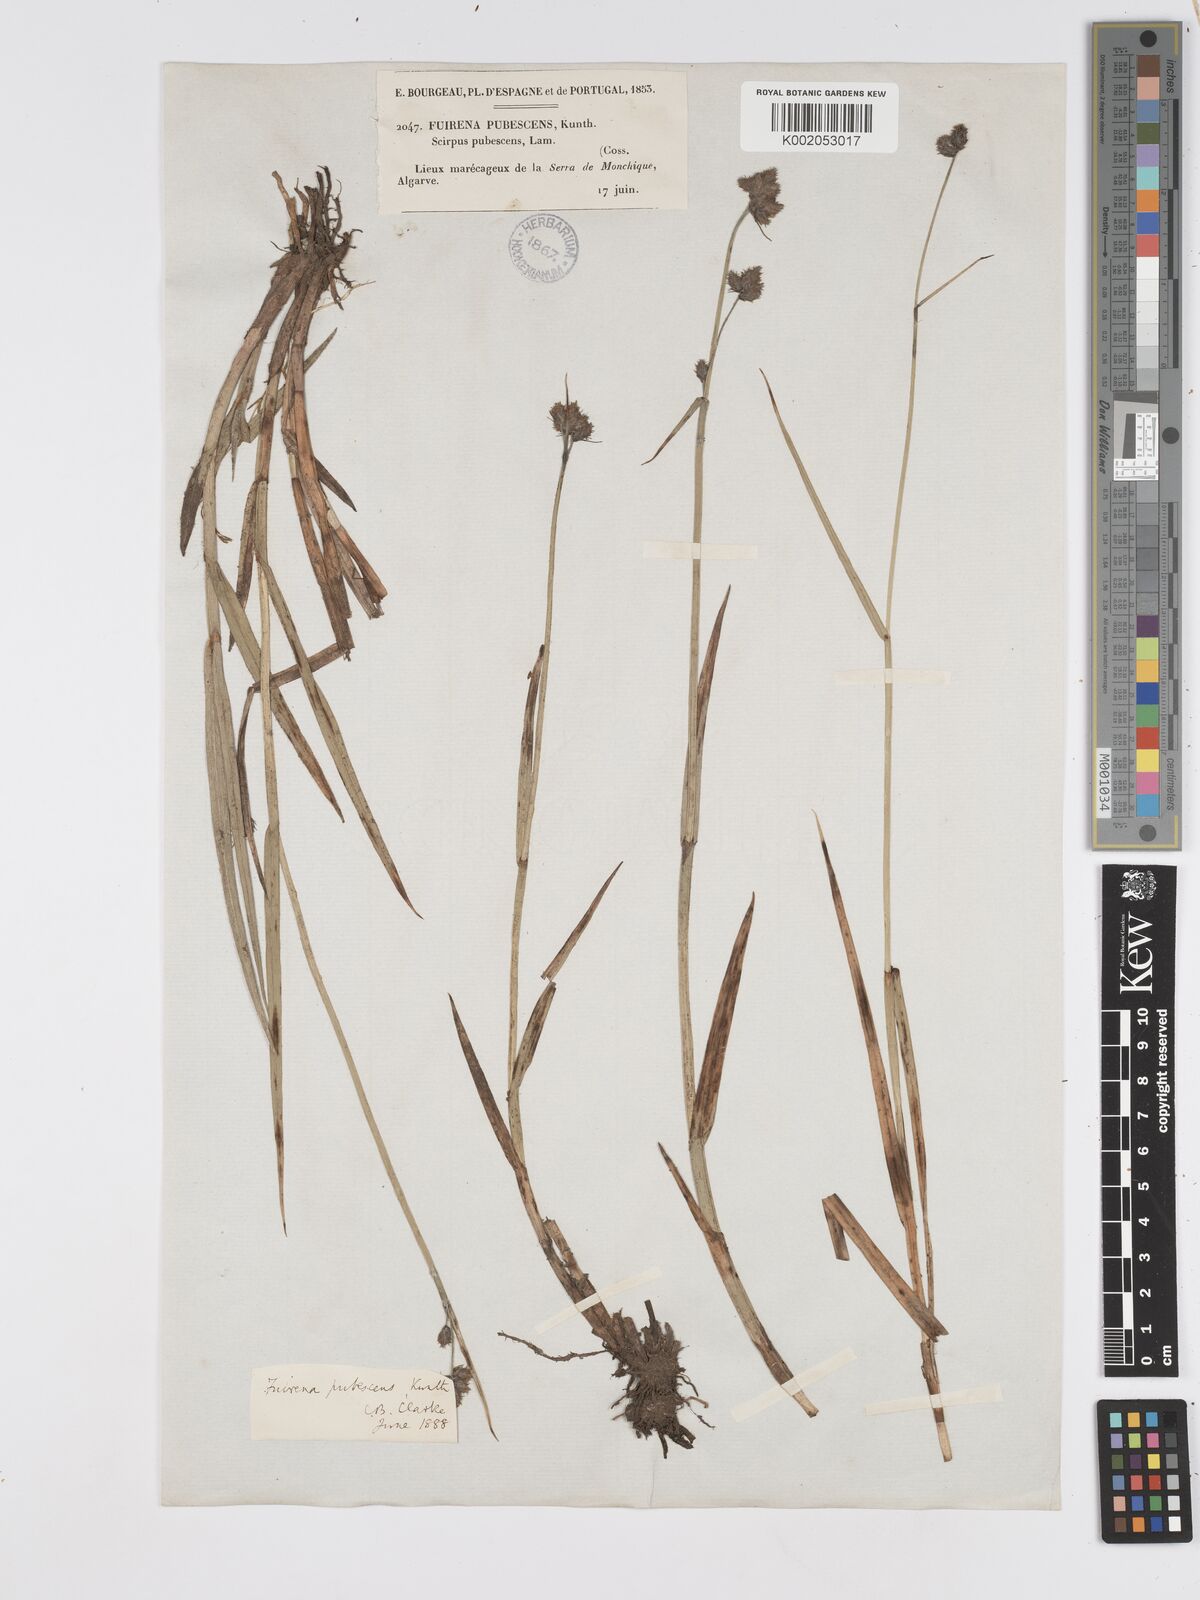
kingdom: Plantae
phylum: Tracheophyta
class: Liliopsida
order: Poales
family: Cyperaceae
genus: Fuirena
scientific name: Fuirena pubescens
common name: Hairy sedge
